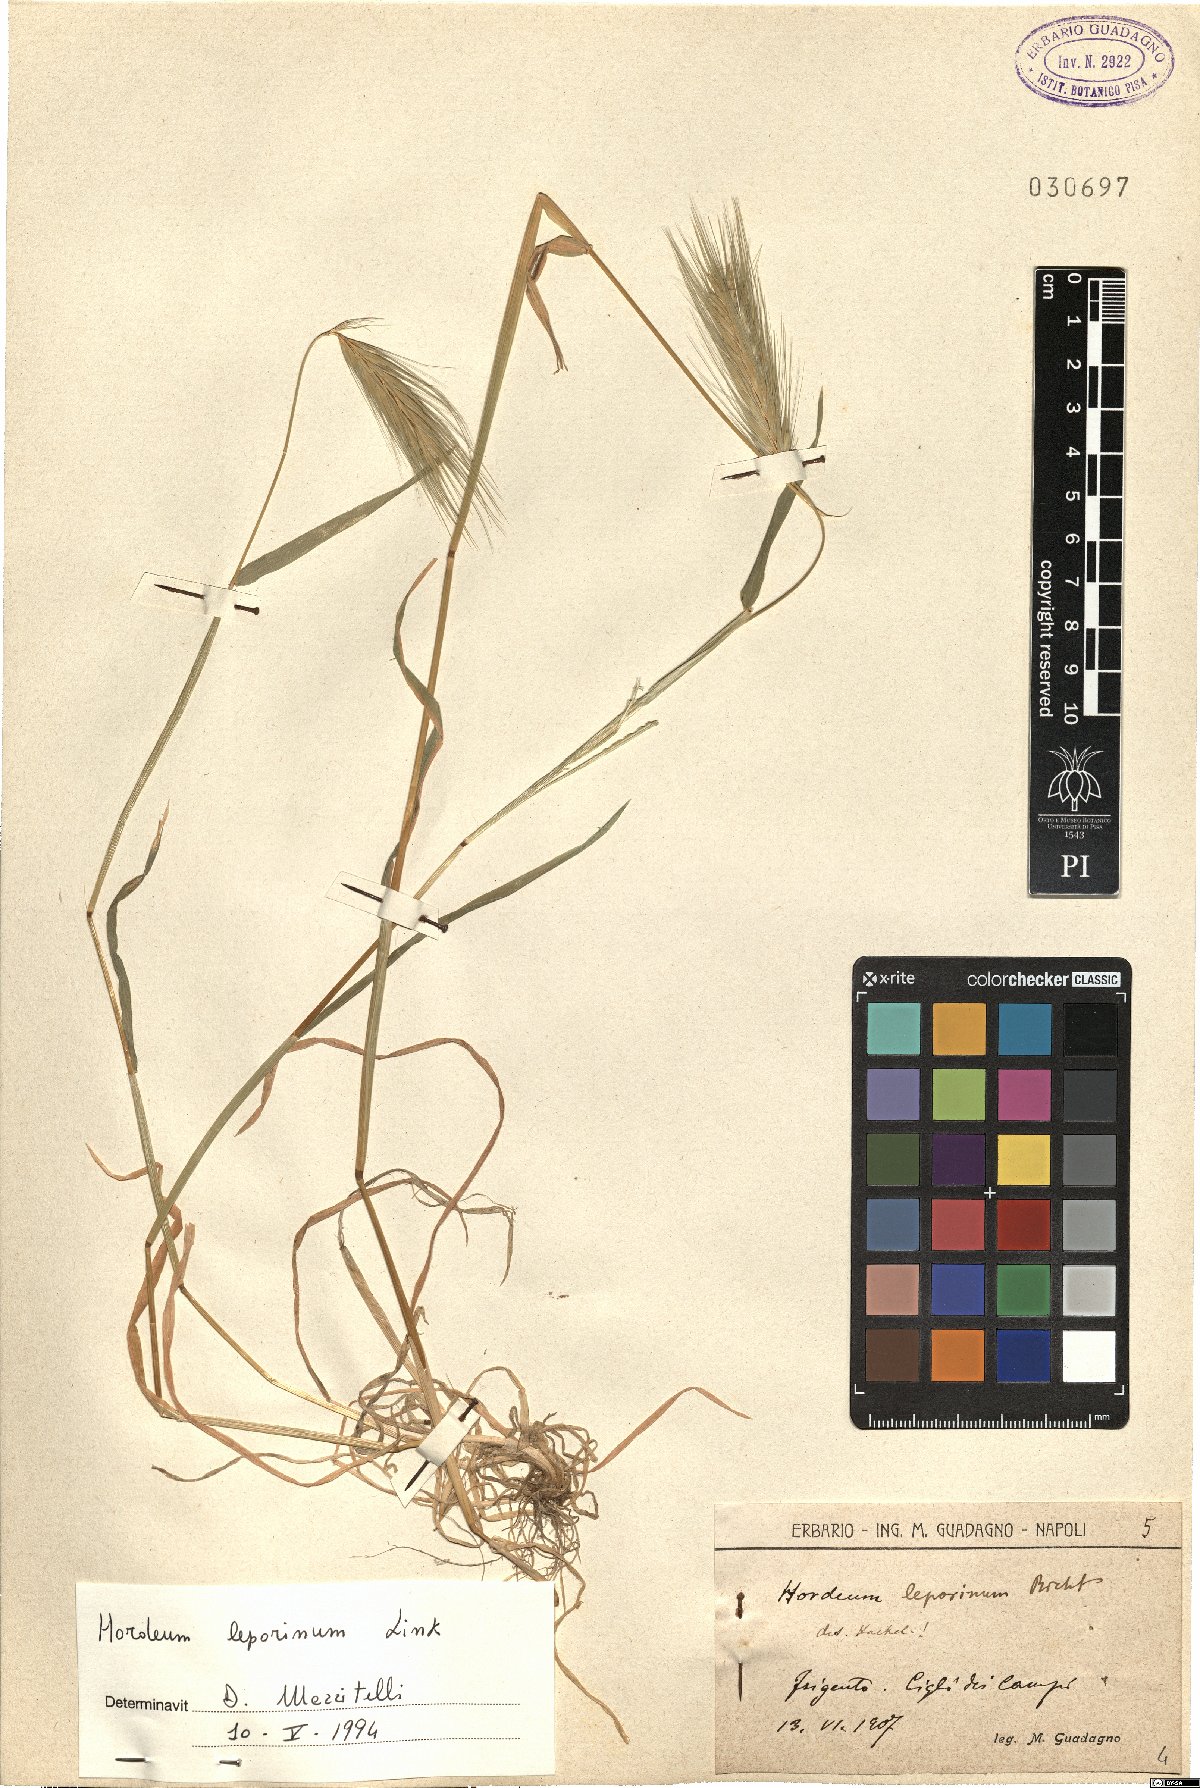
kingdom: Plantae
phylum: Tracheophyta
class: Liliopsida
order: Poales
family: Poaceae
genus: Hordeum
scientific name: Hordeum murinum
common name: Wall barley
